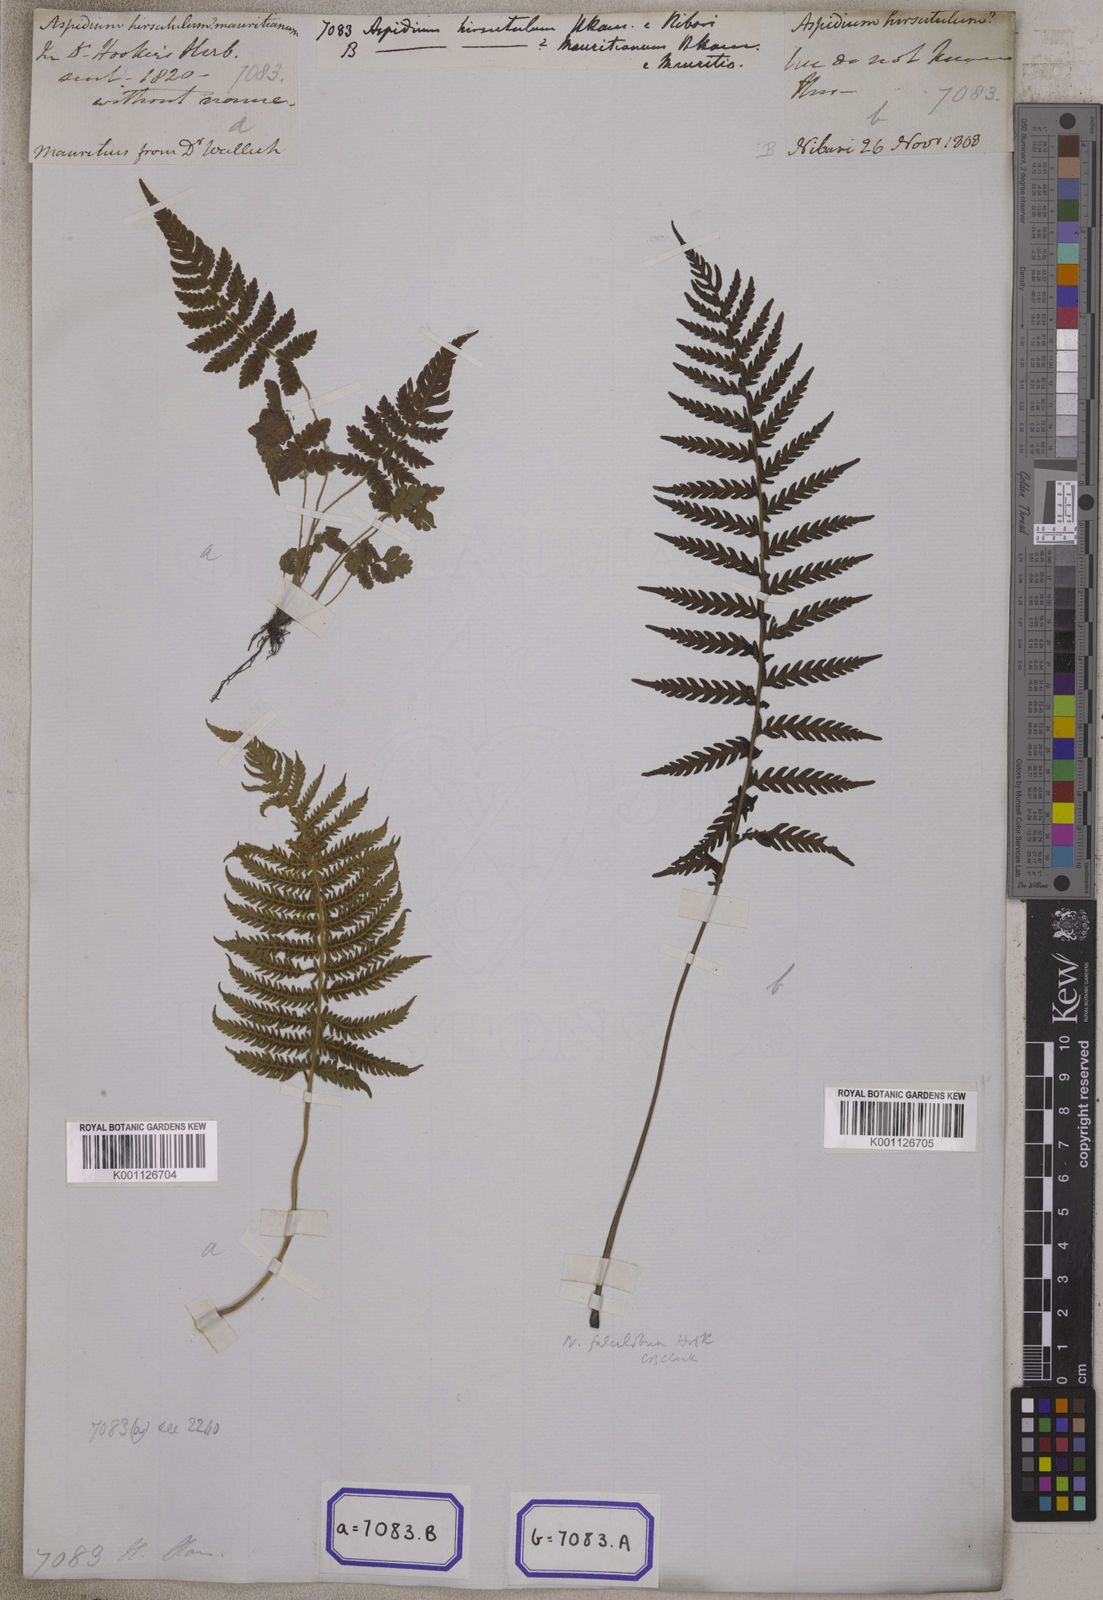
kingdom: Plantae
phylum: Tracheophyta
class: Polypodiopsida
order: Polypodiales
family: Tectariaceae
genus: Tectaria
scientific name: Tectaria Aspidium spec
